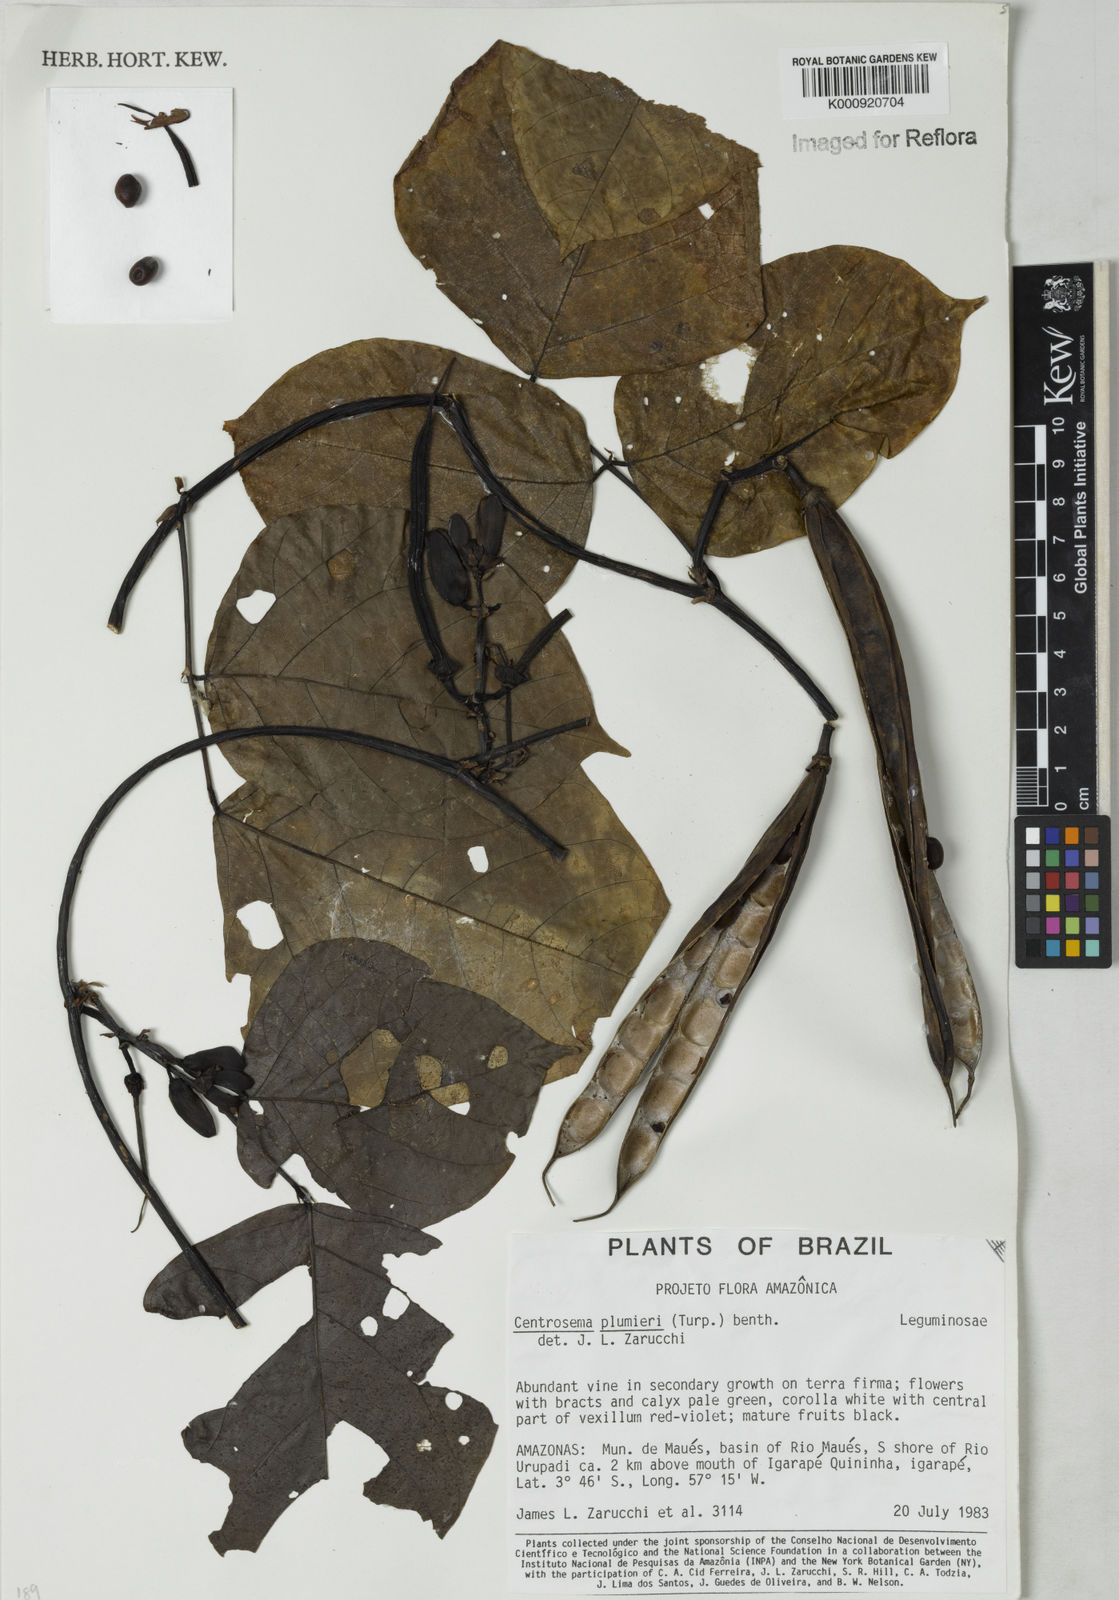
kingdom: Plantae
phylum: Tracheophyta
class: Magnoliopsida
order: Fabales
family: Fabaceae
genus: Centrosema
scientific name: Centrosema plumieri
